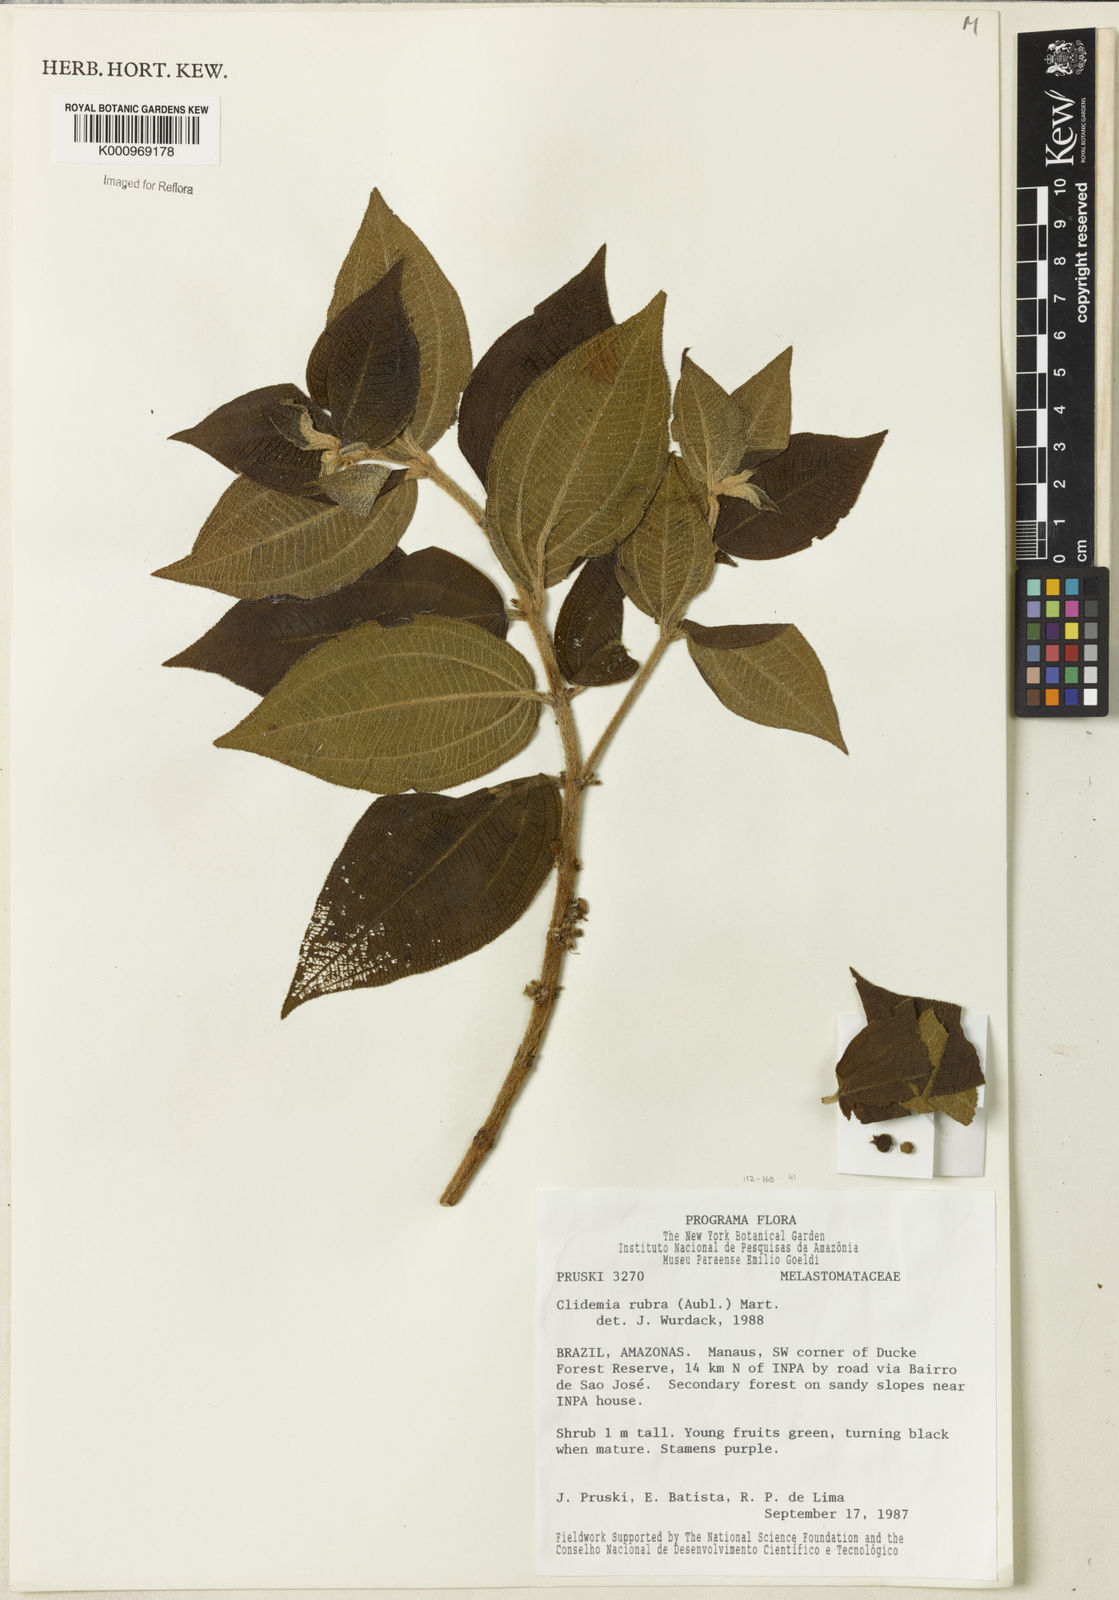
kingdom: Plantae
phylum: Tracheophyta
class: Magnoliopsida
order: Myrtales
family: Melastomataceae
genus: Miconia
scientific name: Miconia rubra
